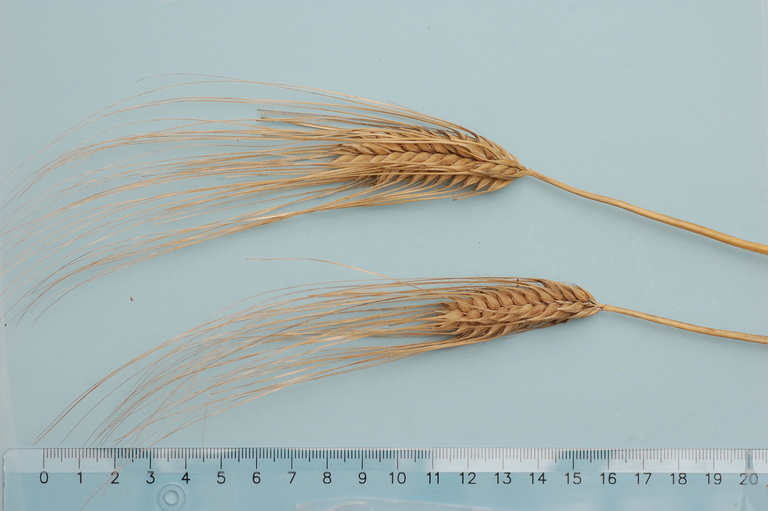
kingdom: Plantae
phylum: Tracheophyta
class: Liliopsida
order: Poales
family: Poaceae
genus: Hordeum
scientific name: Hordeum vulgare
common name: Common barley
